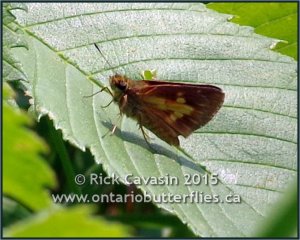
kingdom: Animalia
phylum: Arthropoda
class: Insecta
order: Lepidoptera
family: Hesperiidae
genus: Poanes
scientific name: Poanes massasoit
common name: Mulberry Wing
